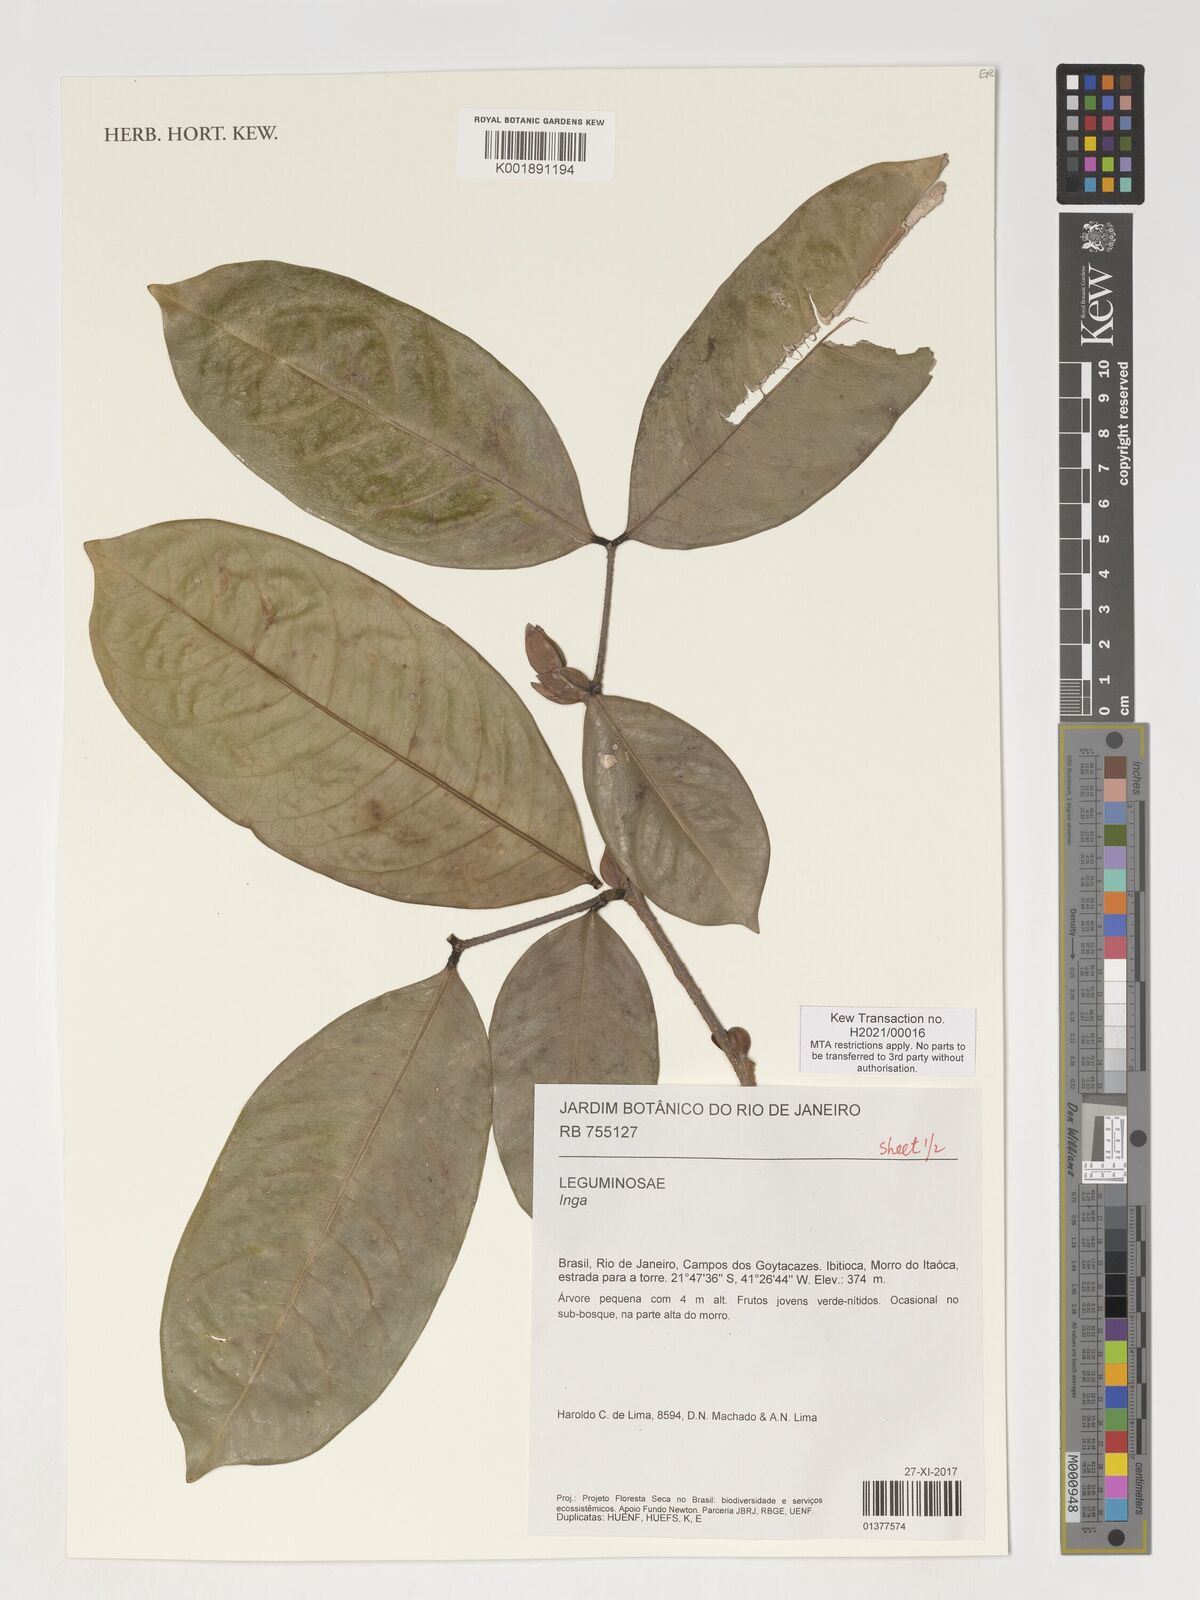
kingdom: Plantae
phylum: Tracheophyta
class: Magnoliopsida
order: Fabales
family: Fabaceae
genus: Inga
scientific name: Inga
